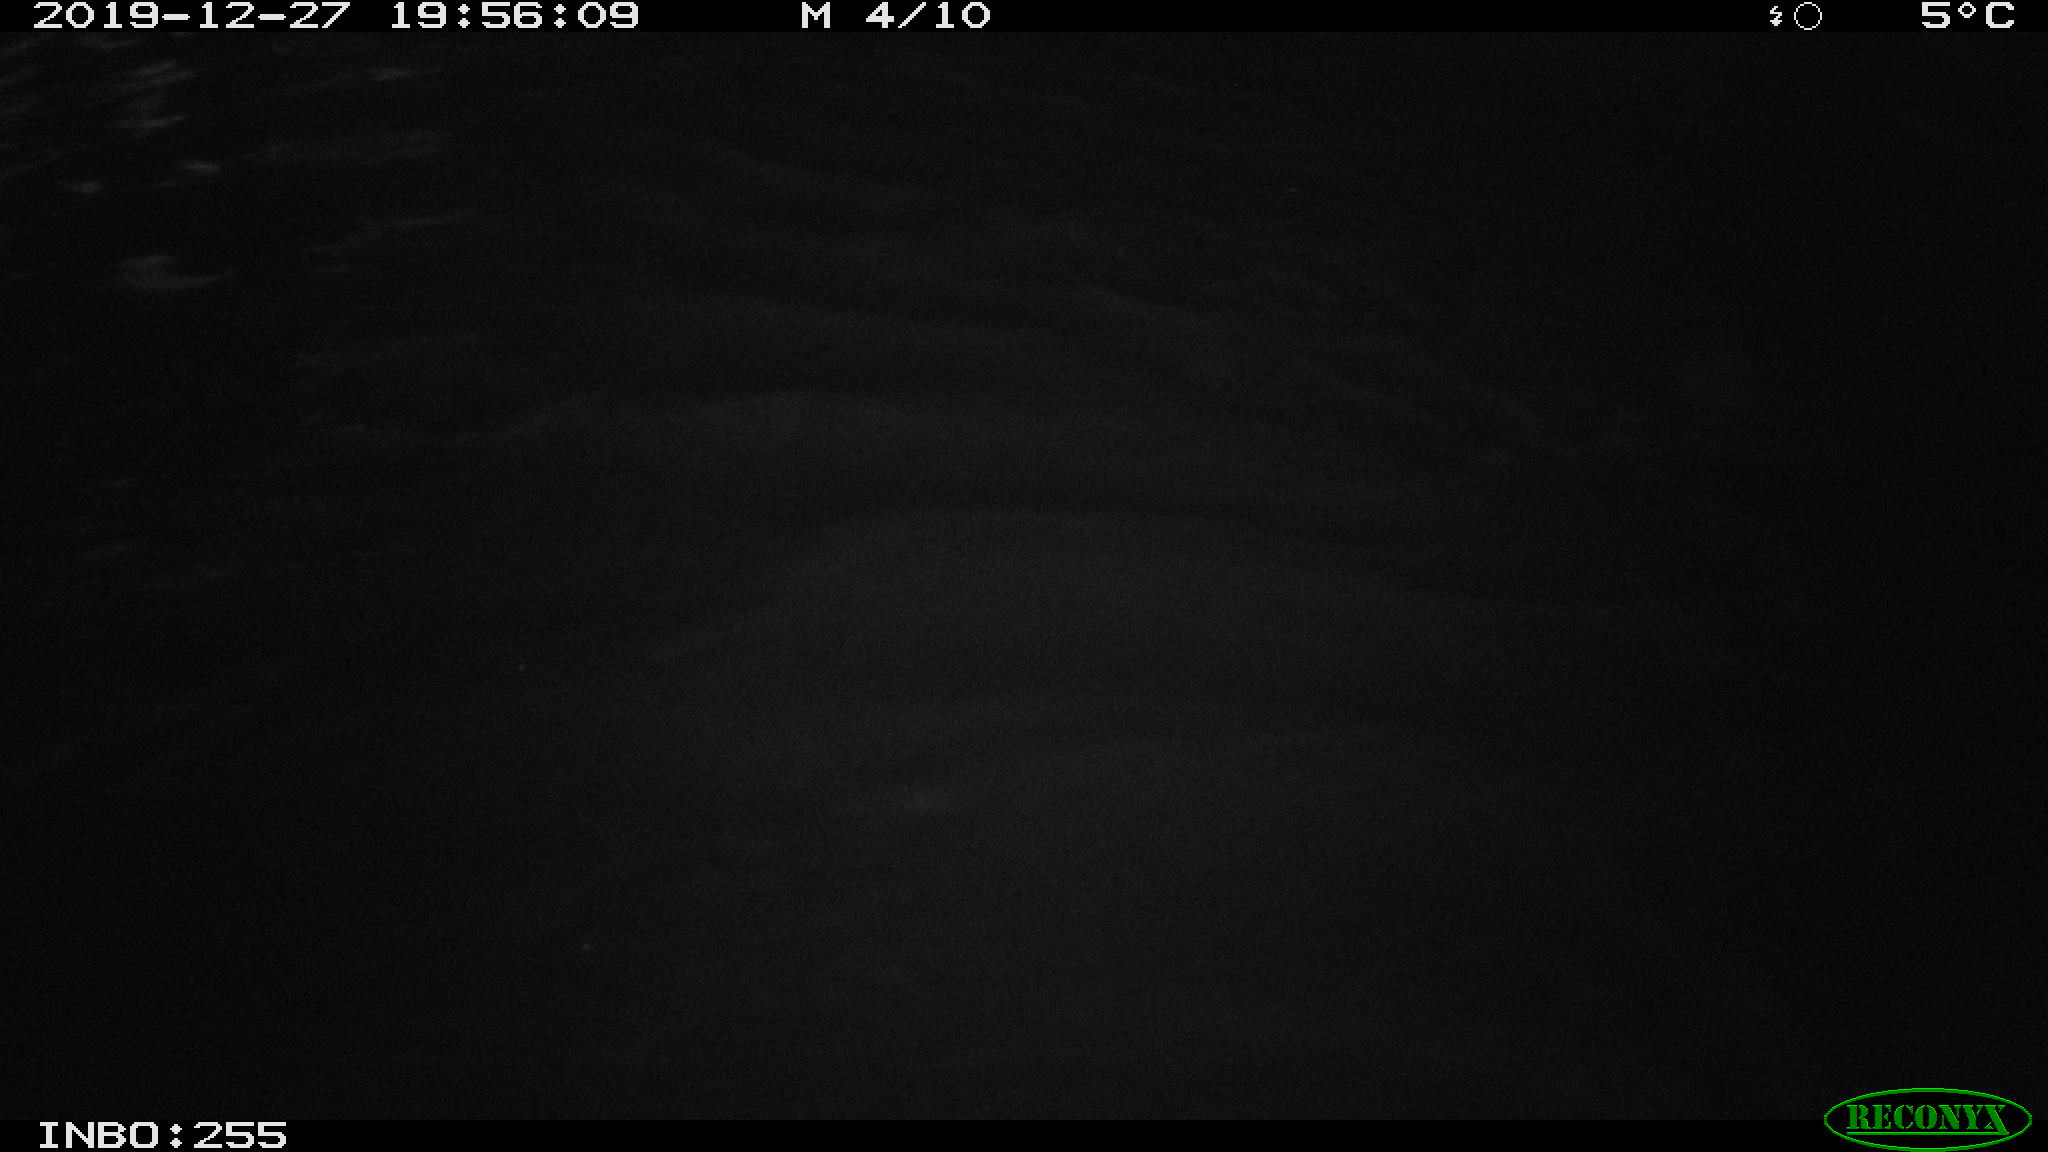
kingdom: Animalia
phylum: Chordata
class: Mammalia
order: Rodentia
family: Cricetidae
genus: Ondatra
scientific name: Ondatra zibethicus
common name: Muskrat
